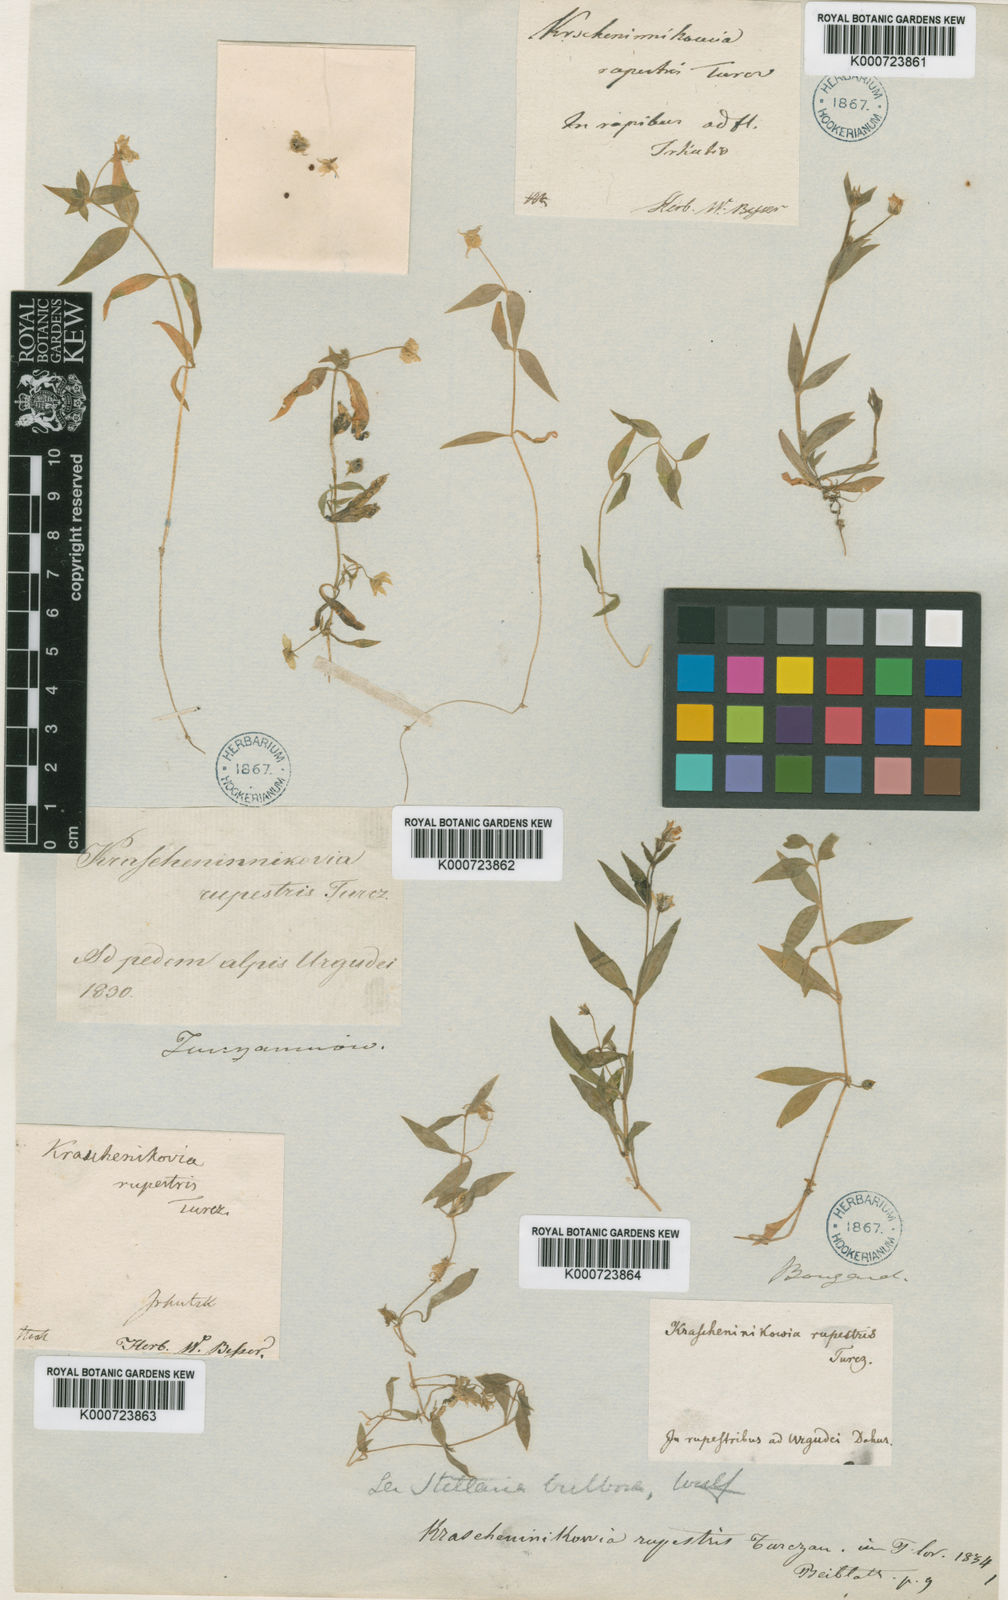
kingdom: Plantae
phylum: Tracheophyta
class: Magnoliopsida
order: Caryophyllales
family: Caryophyllaceae
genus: Pseudostellaria
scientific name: Pseudostellaria rupestris
